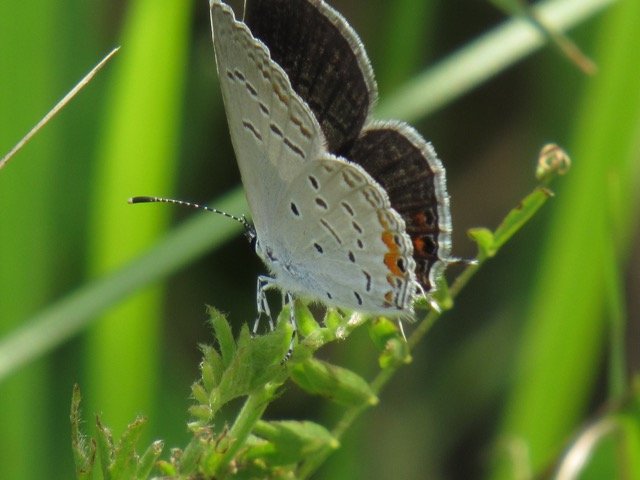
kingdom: Animalia
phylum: Arthropoda
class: Insecta
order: Lepidoptera
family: Lycaenidae
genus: Elkalyce
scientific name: Elkalyce comyntas
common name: Eastern Tailed-Blue
